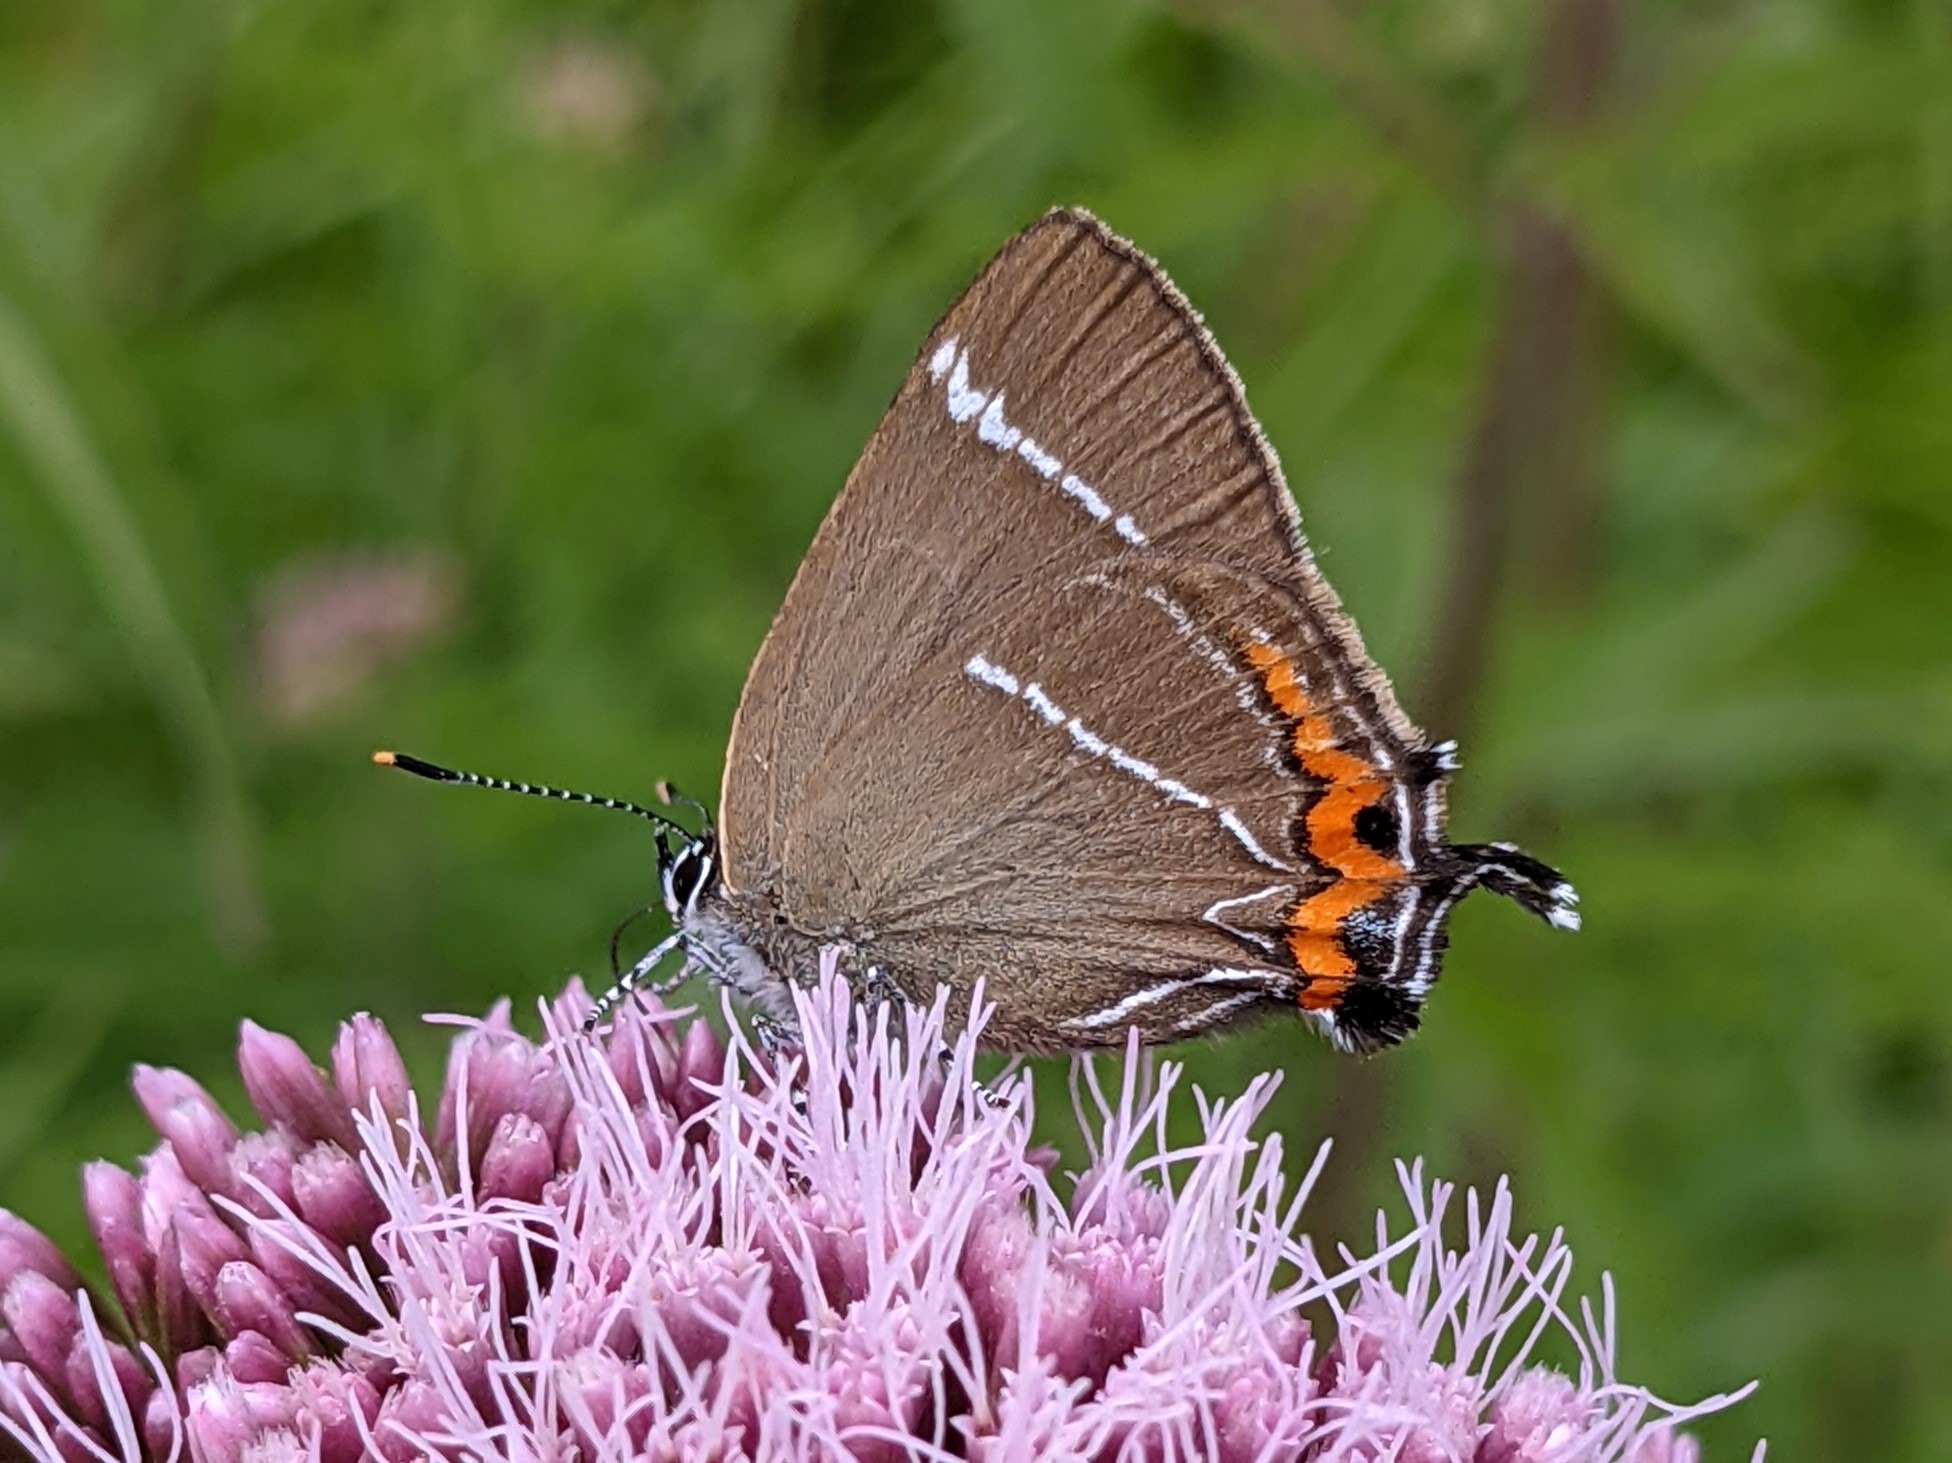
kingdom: Animalia
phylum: Arthropoda
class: Insecta
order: Lepidoptera
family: Lycaenidae
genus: Satyrium
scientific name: Satyrium w-album
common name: Det hvide W
